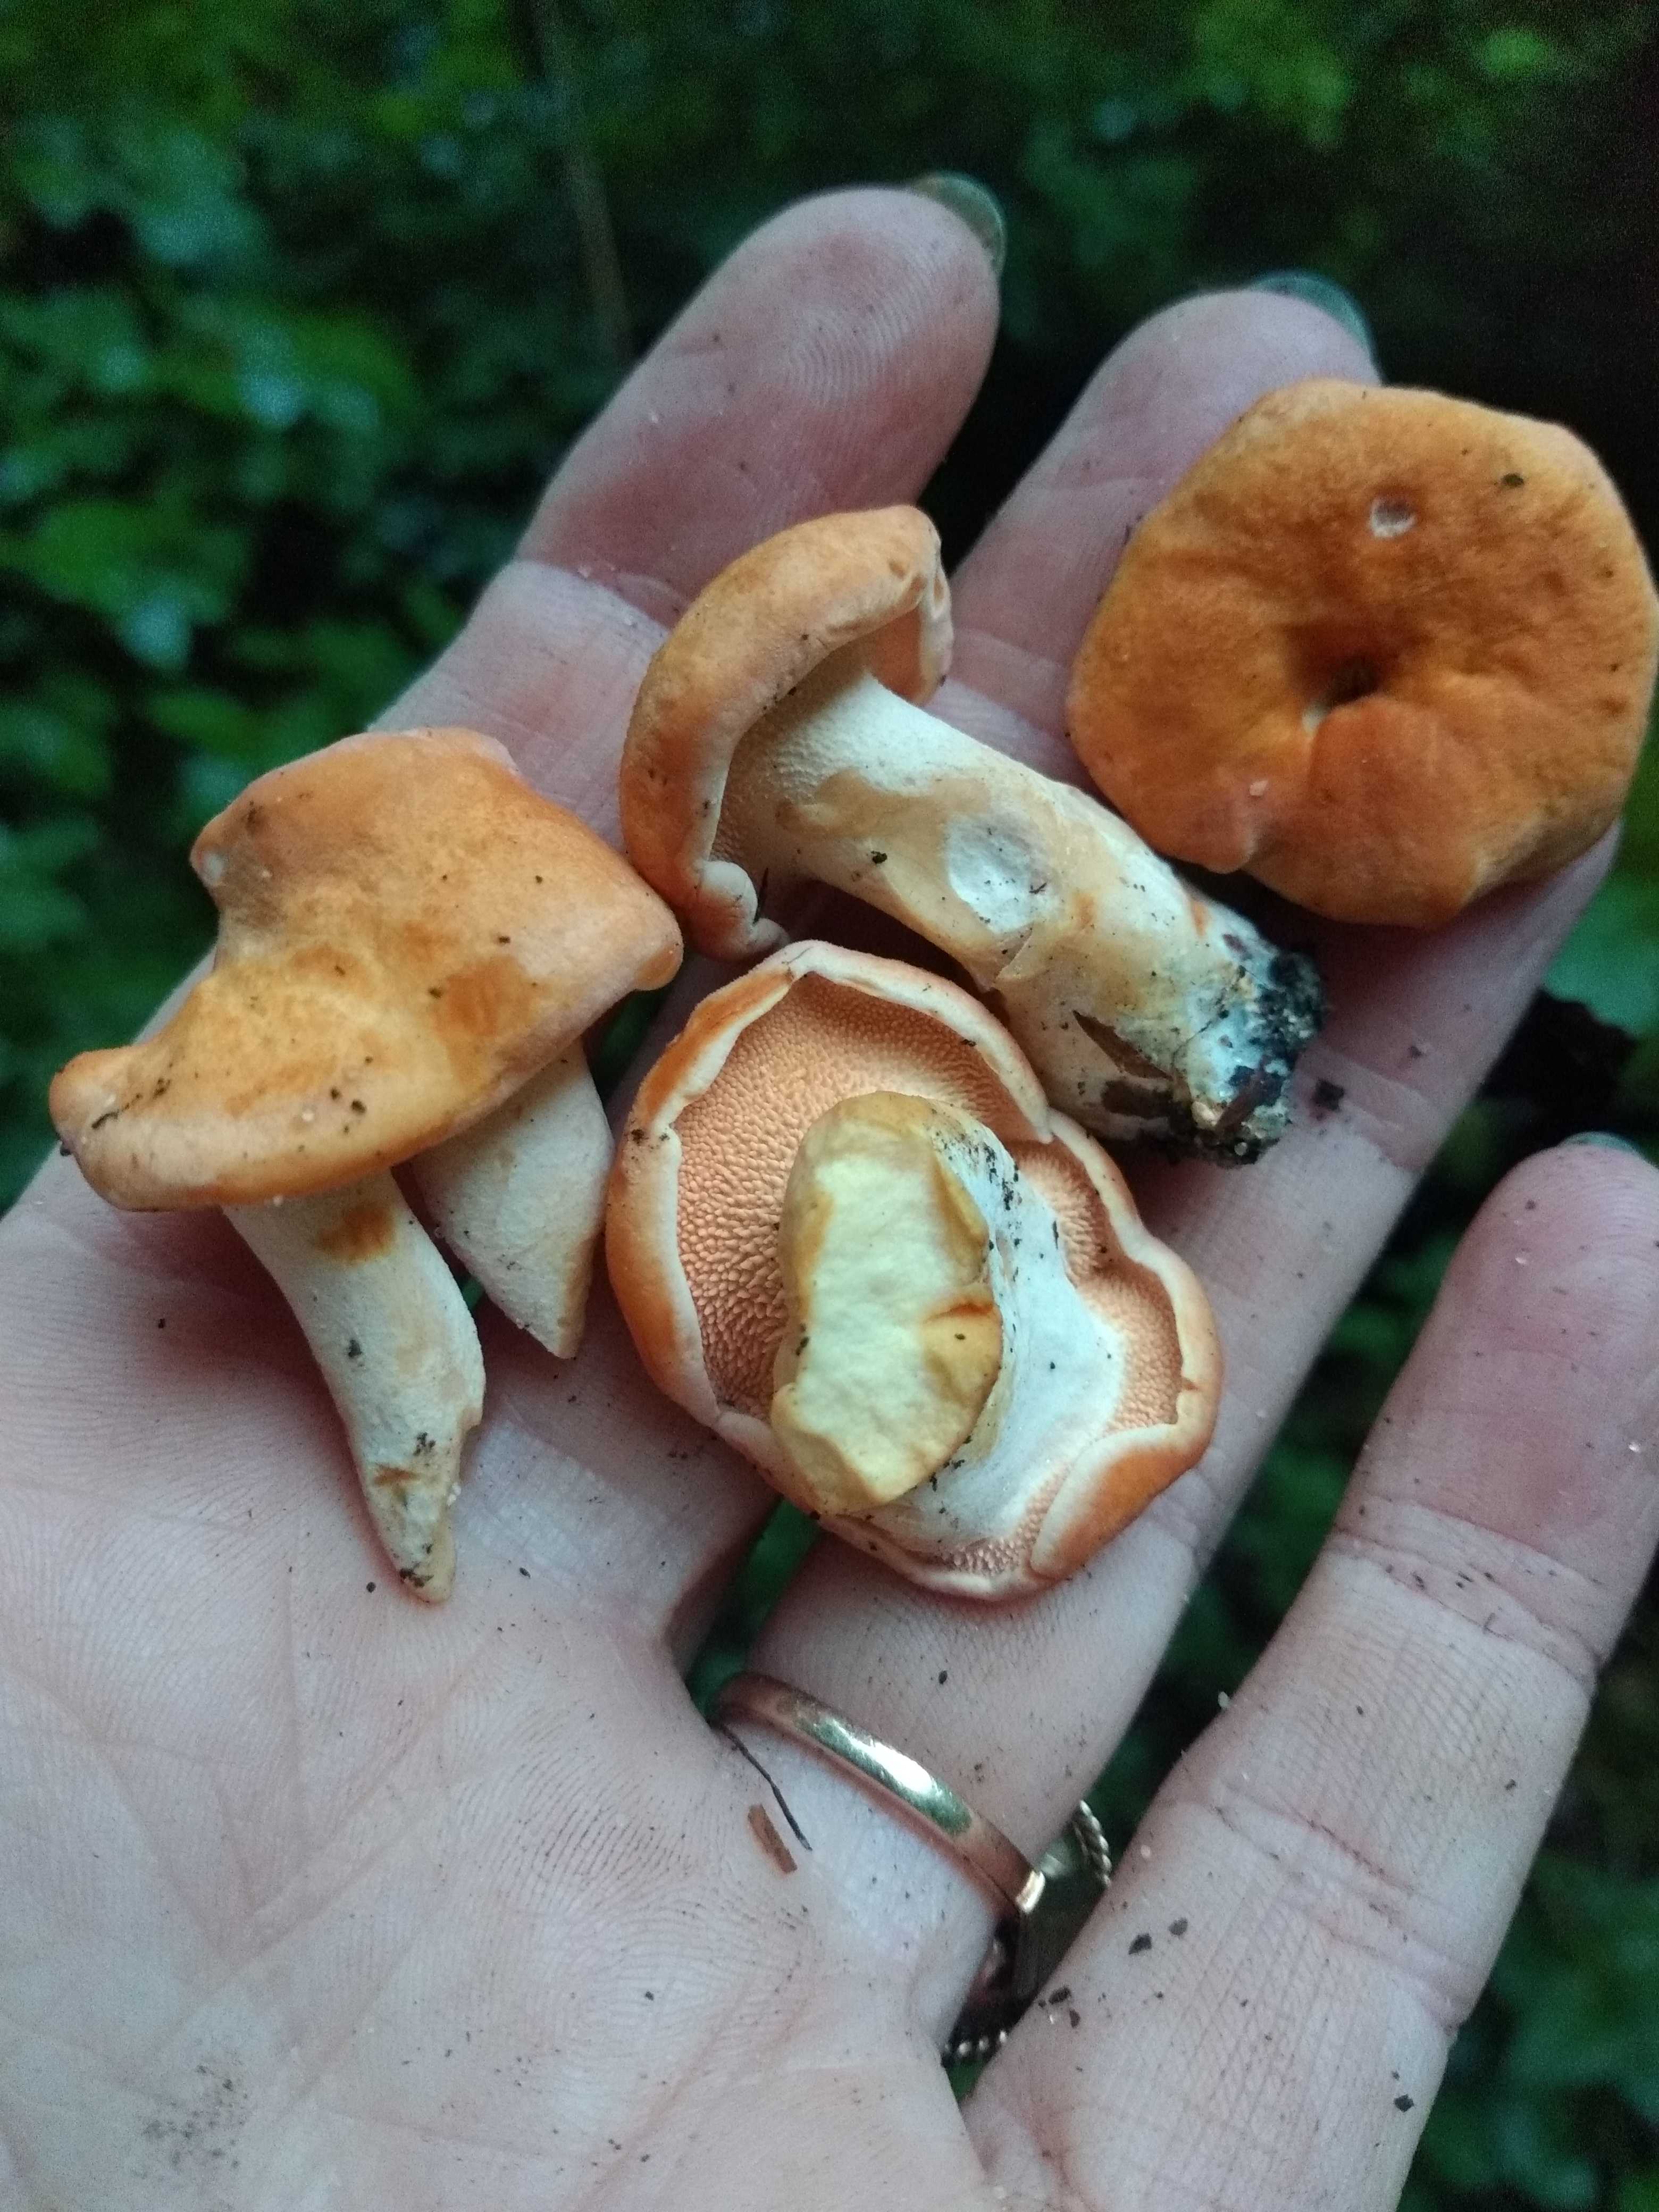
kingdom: Fungi
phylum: Basidiomycota
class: Agaricomycetes
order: Cantharellales
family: Hydnaceae
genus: Hydnum
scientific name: Hydnum
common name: pigsvamp
